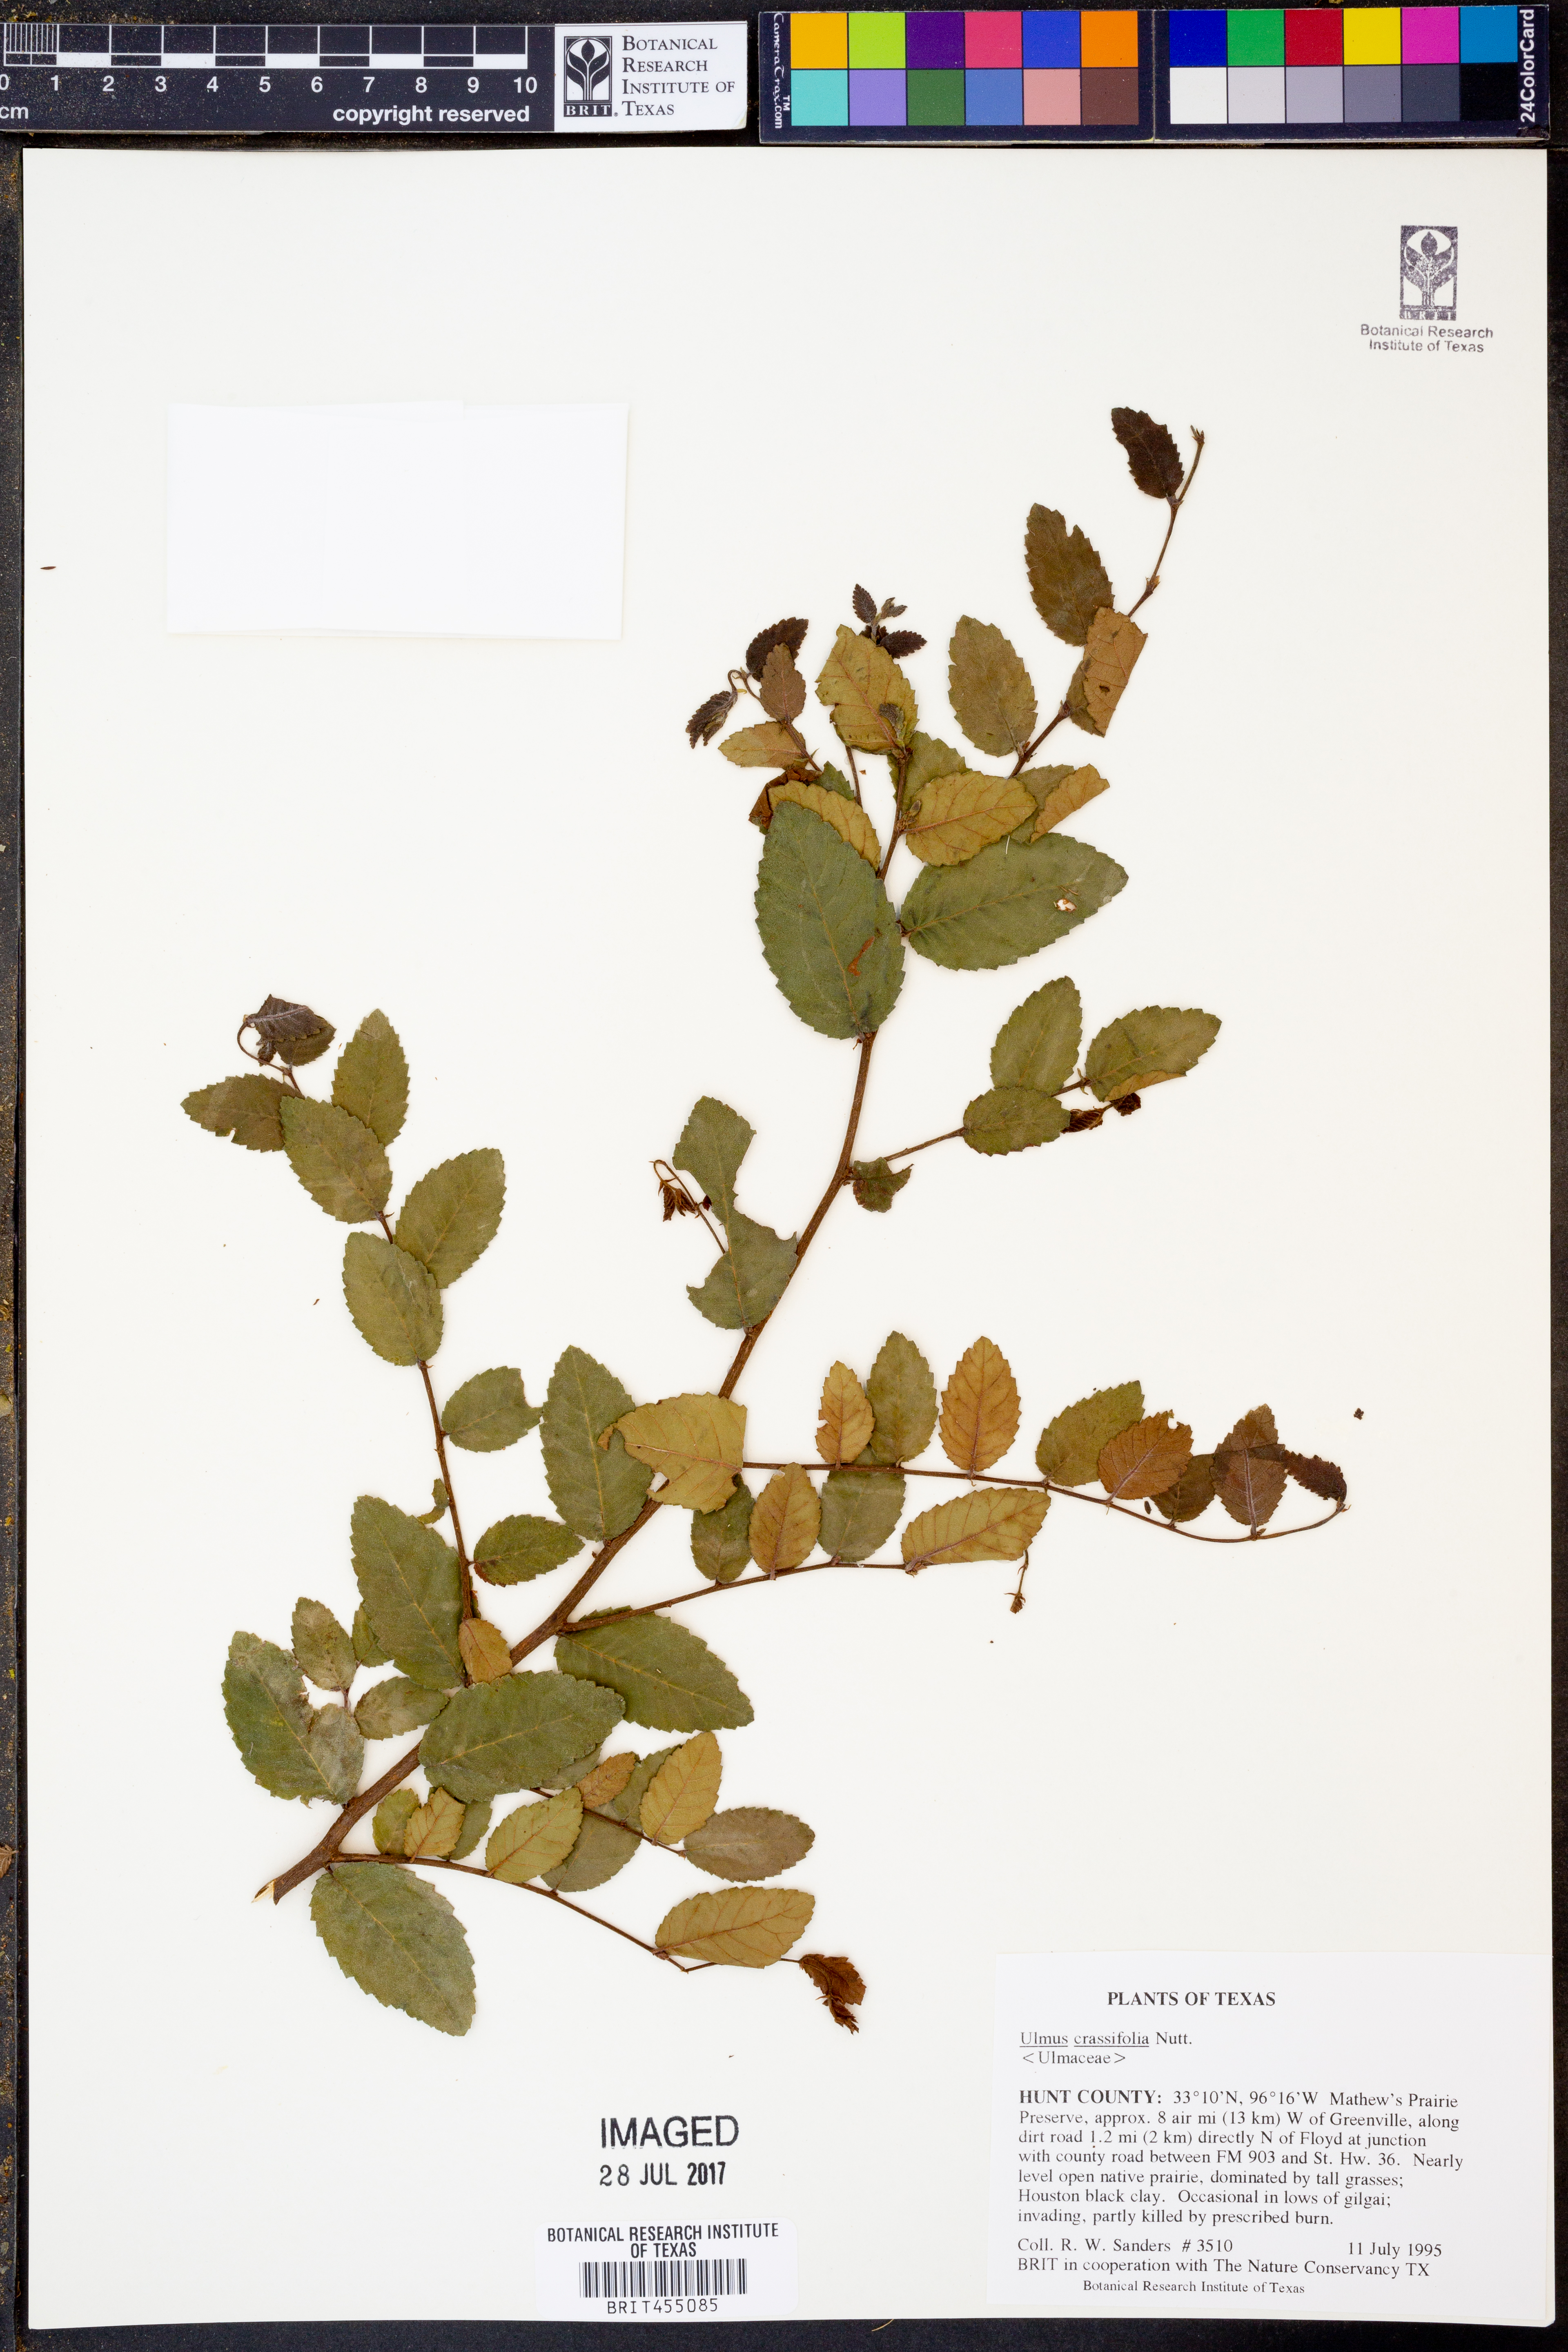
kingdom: Plantae
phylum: Tracheophyta
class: Magnoliopsida
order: Rosales
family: Ulmaceae
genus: Ulmus
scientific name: Ulmus crassifolia
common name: Basket elm
